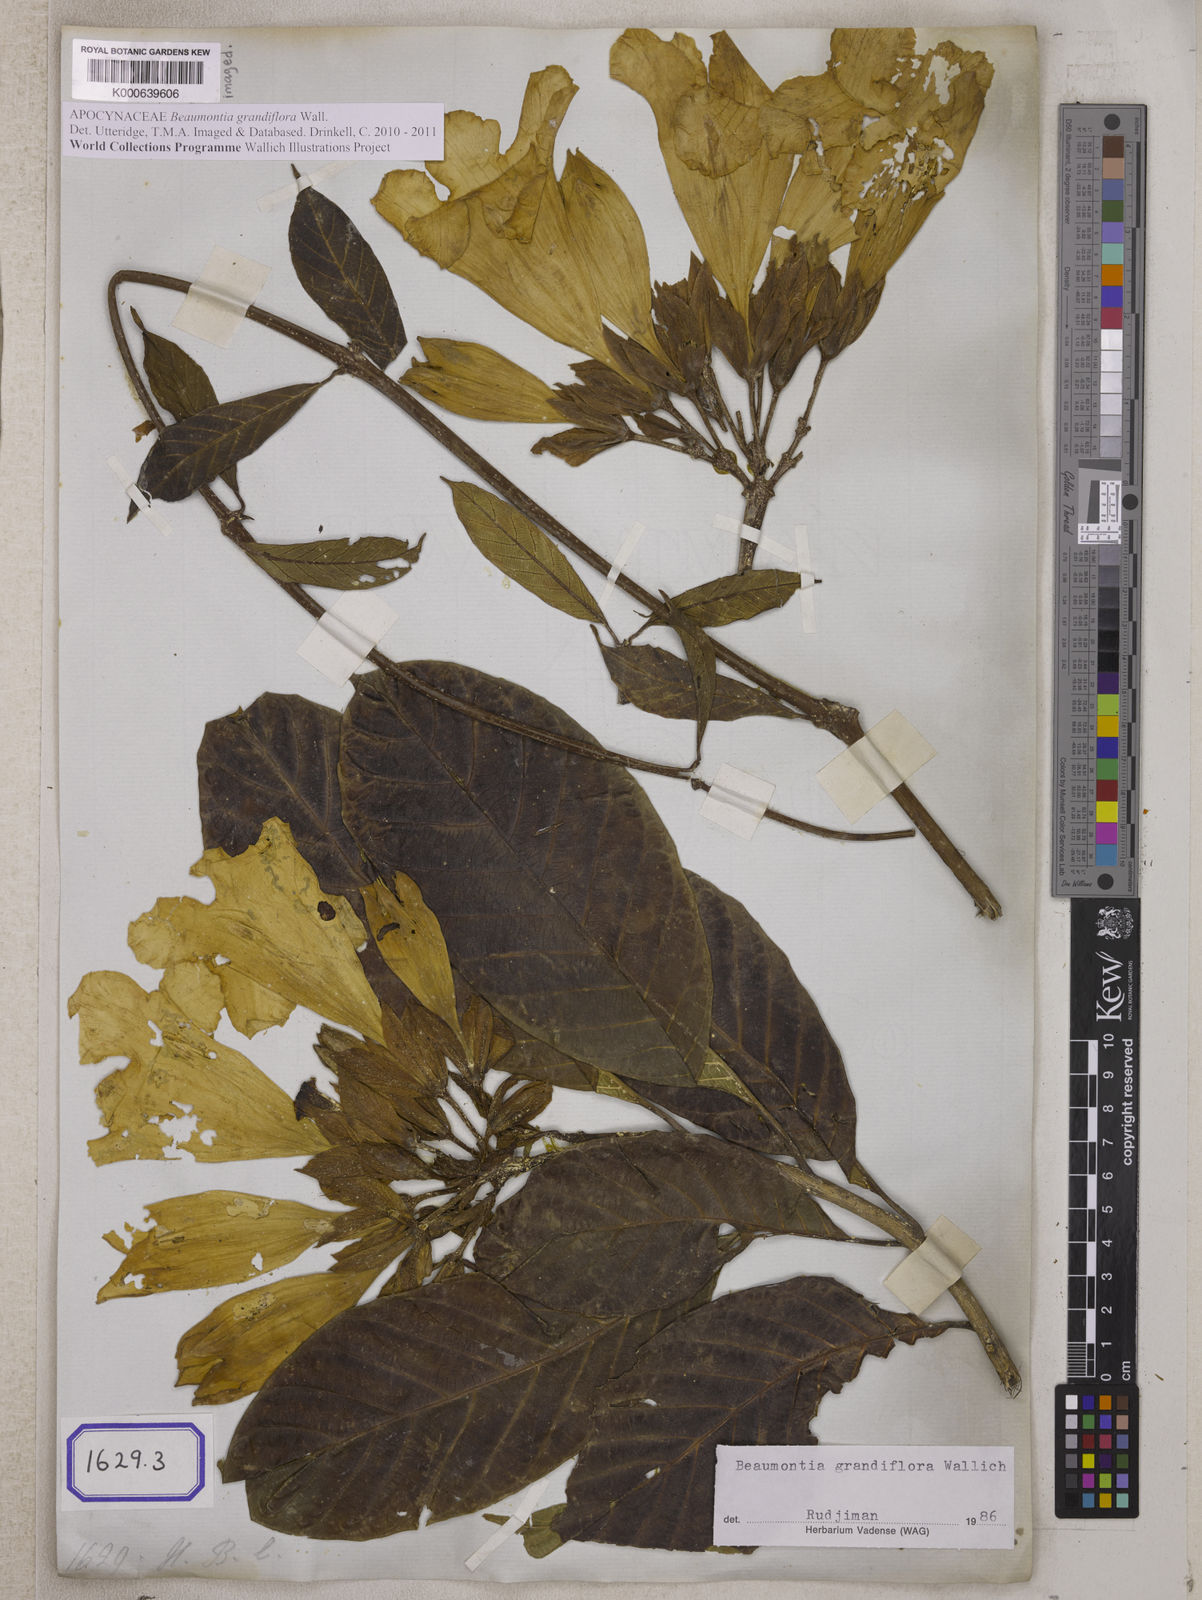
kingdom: Plantae
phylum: Tracheophyta
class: Magnoliopsida
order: Gentianales
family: Apocynaceae
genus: Beaumontia
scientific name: Beaumontia grandiflora
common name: Easter-lily-vine
